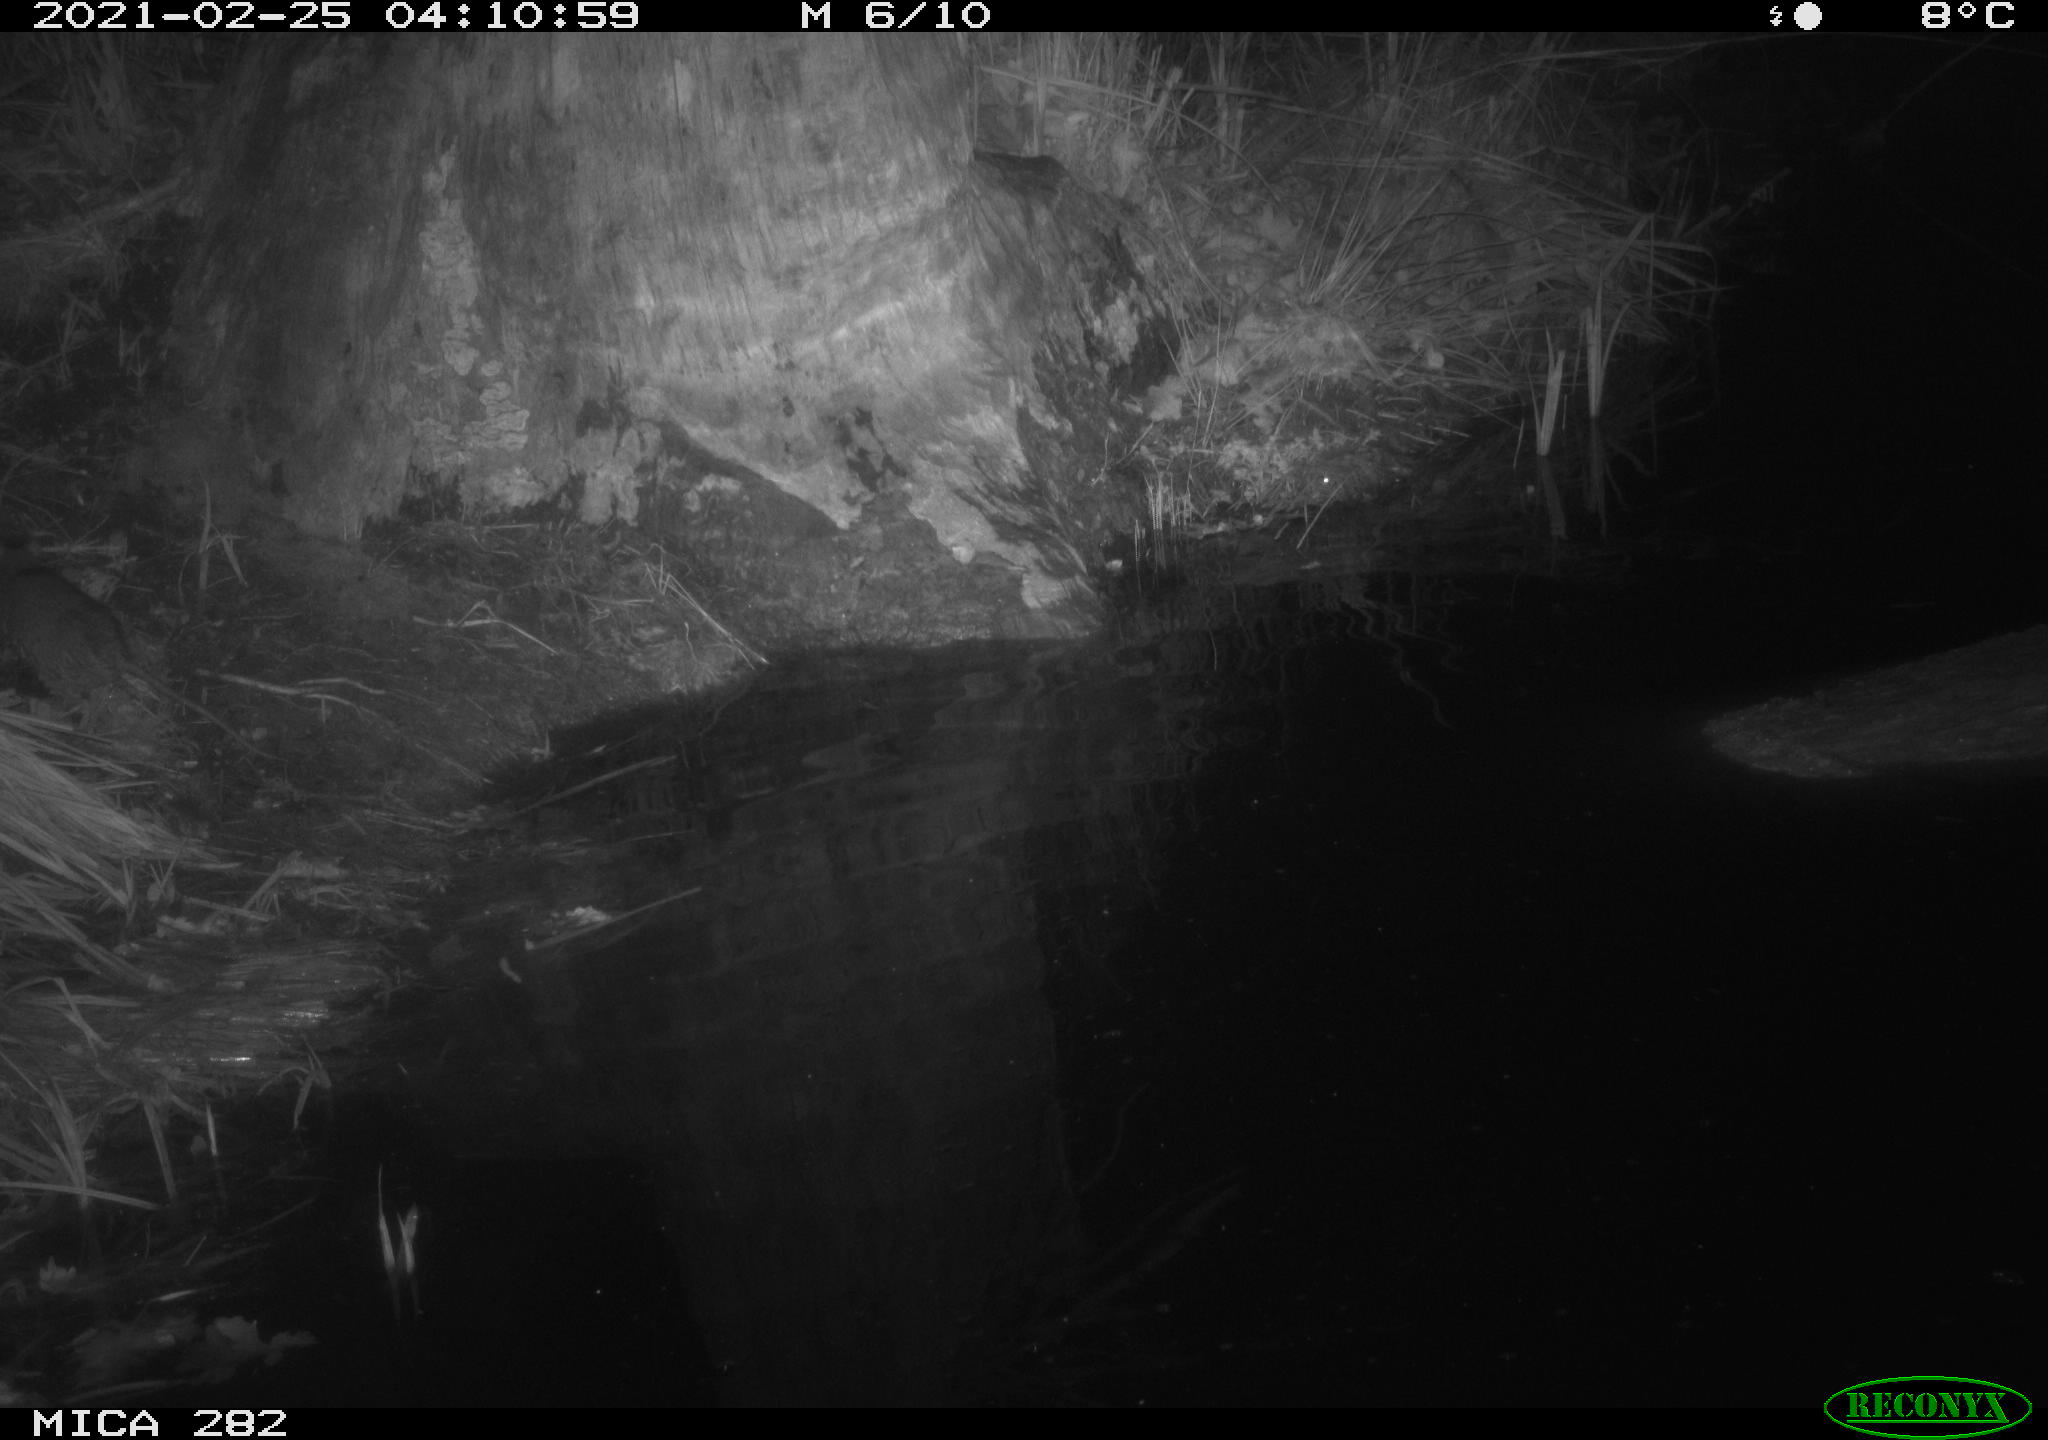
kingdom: Animalia
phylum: Chordata
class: Mammalia
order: Rodentia
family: Muridae
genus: Rattus
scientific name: Rattus norvegicus
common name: Brown rat
